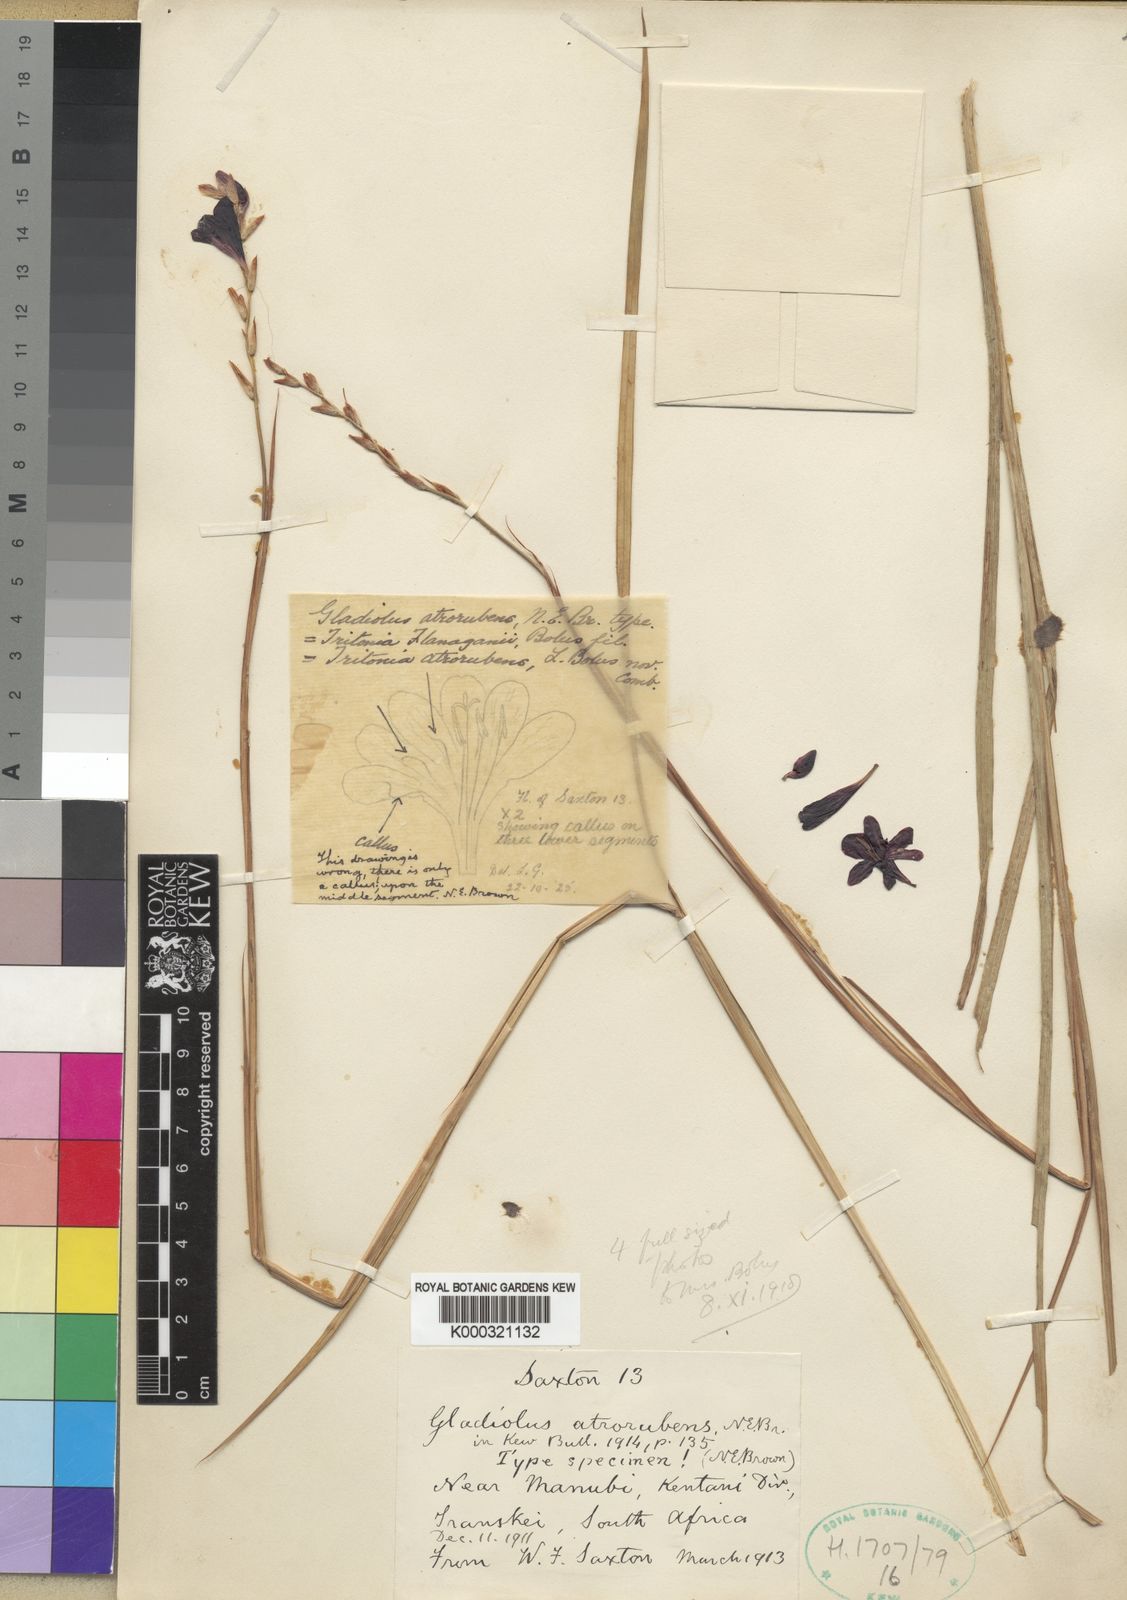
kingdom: Plantae
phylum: Tracheophyta
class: Liliopsida
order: Asparagales
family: Iridaceae
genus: Tritonia
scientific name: Tritonia atrorubens
